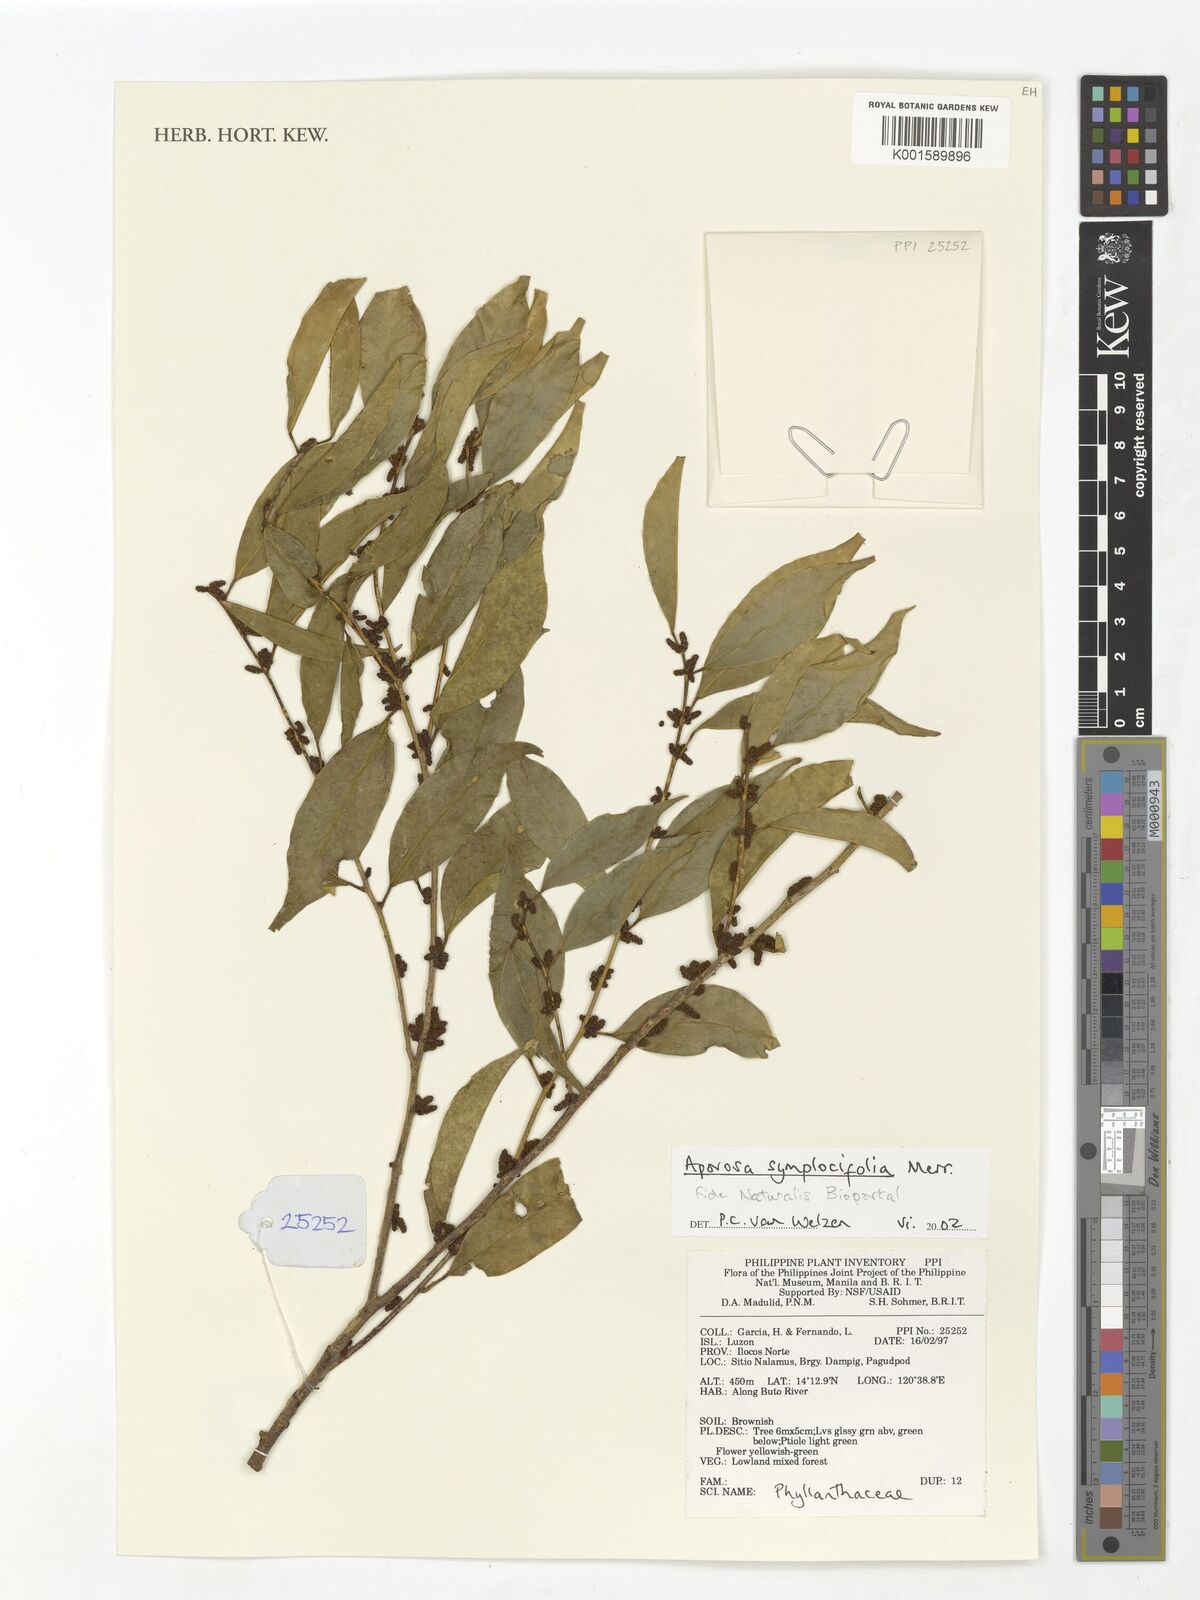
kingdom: Plantae
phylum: Tracheophyta
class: Magnoliopsida
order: Malpighiales
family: Phyllanthaceae
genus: Aporosa
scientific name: Aporosa symplocifolia
